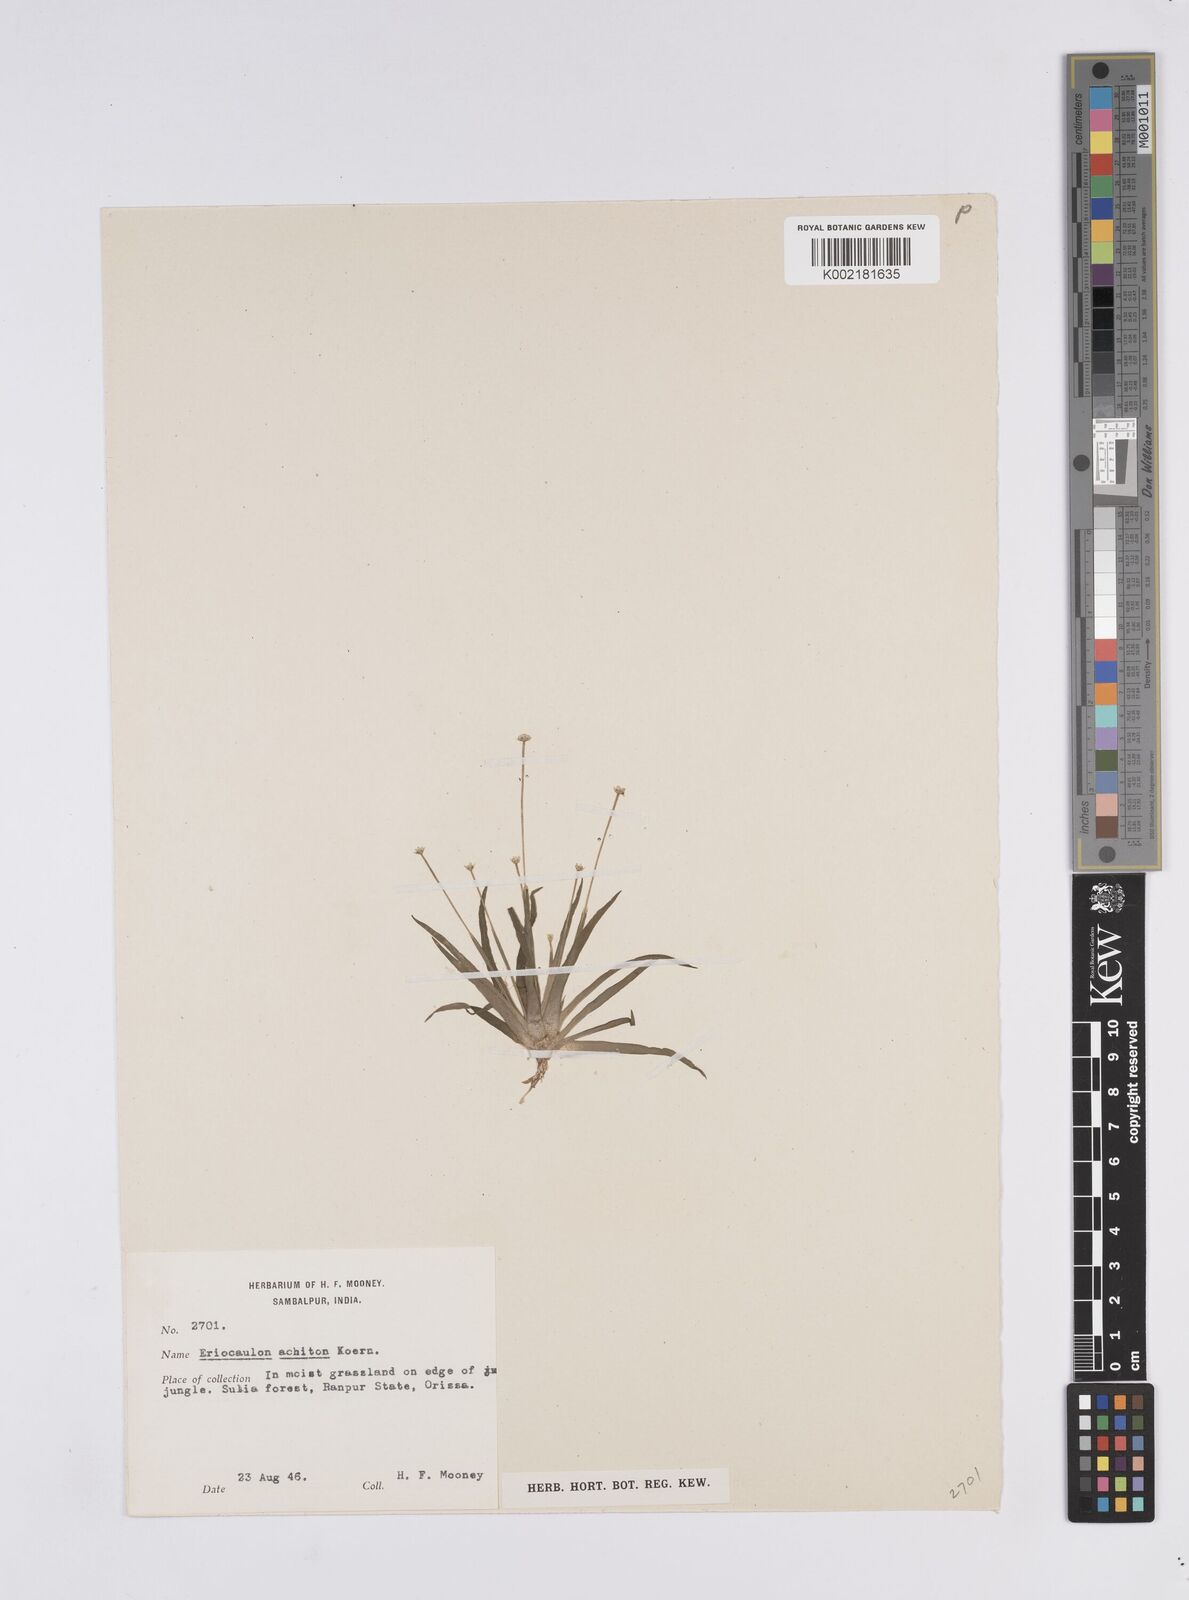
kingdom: Plantae
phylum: Tracheophyta
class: Liliopsida
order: Poales
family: Eriocaulaceae
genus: Eriocaulon
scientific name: Eriocaulon achiton
